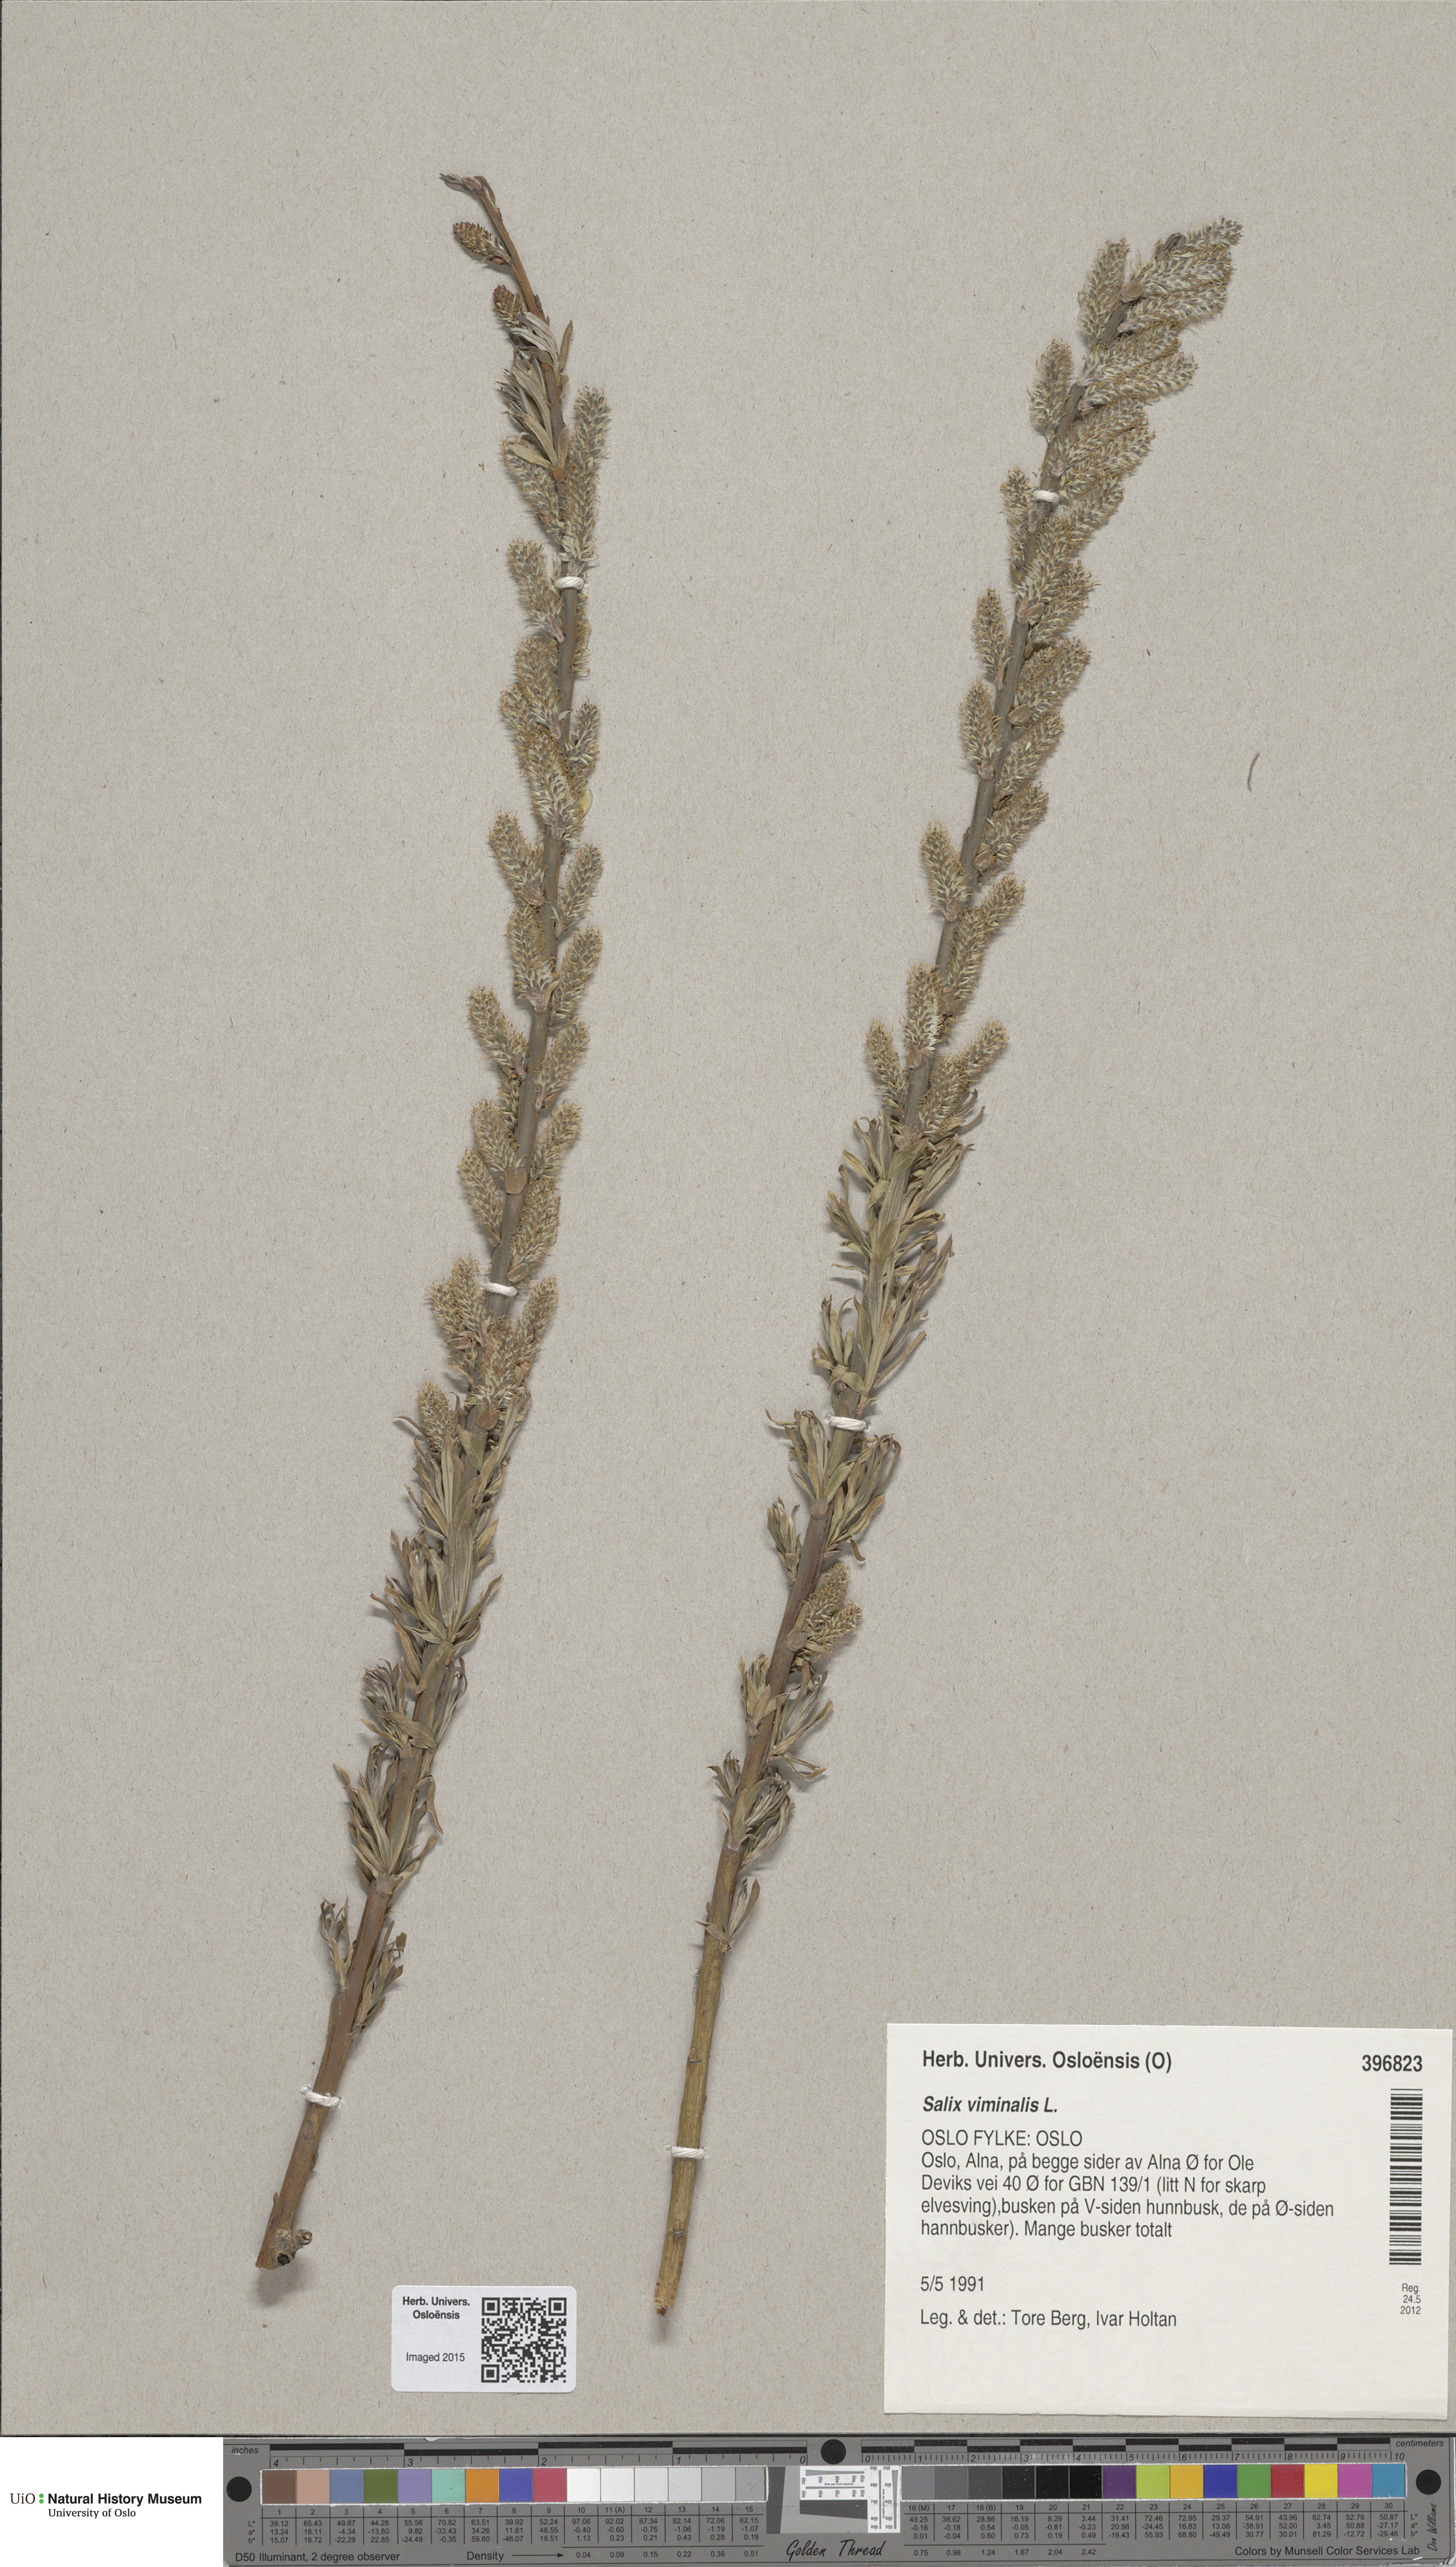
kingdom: Plantae
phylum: Tracheophyta
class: Magnoliopsida
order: Malpighiales
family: Salicaceae
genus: Salix
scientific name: Salix viminalis
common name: Osier
